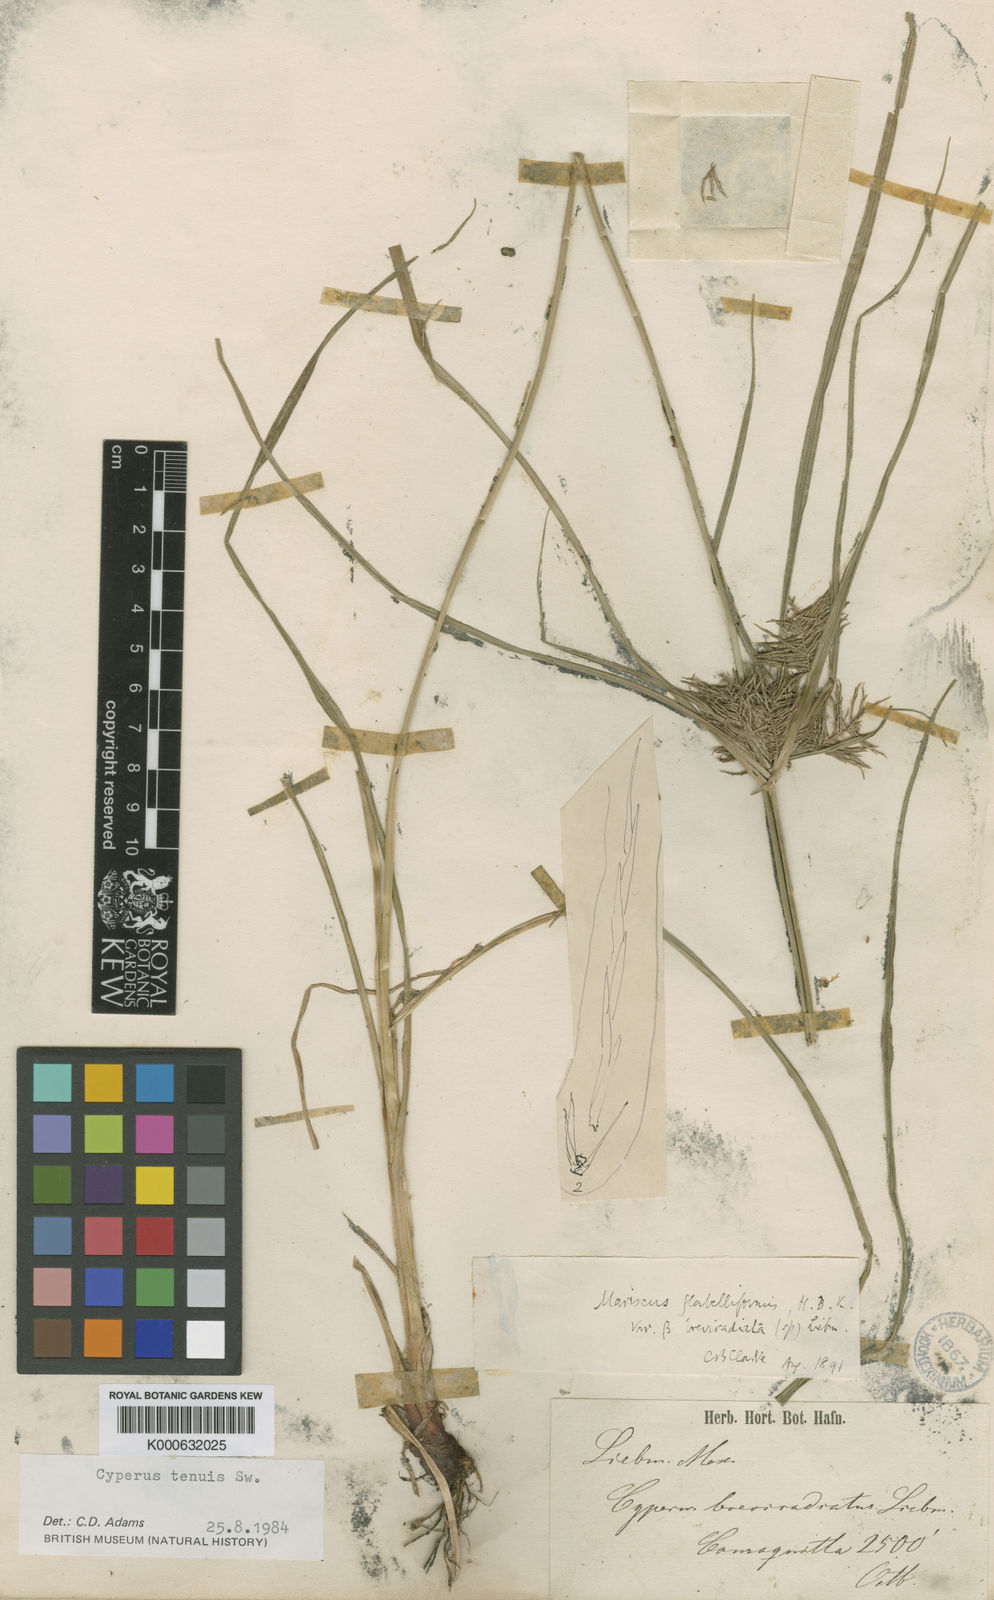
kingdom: Plantae
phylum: Tracheophyta
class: Liliopsida
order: Poales
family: Cyperaceae
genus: Cyperus
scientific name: Cyperus tenuis
